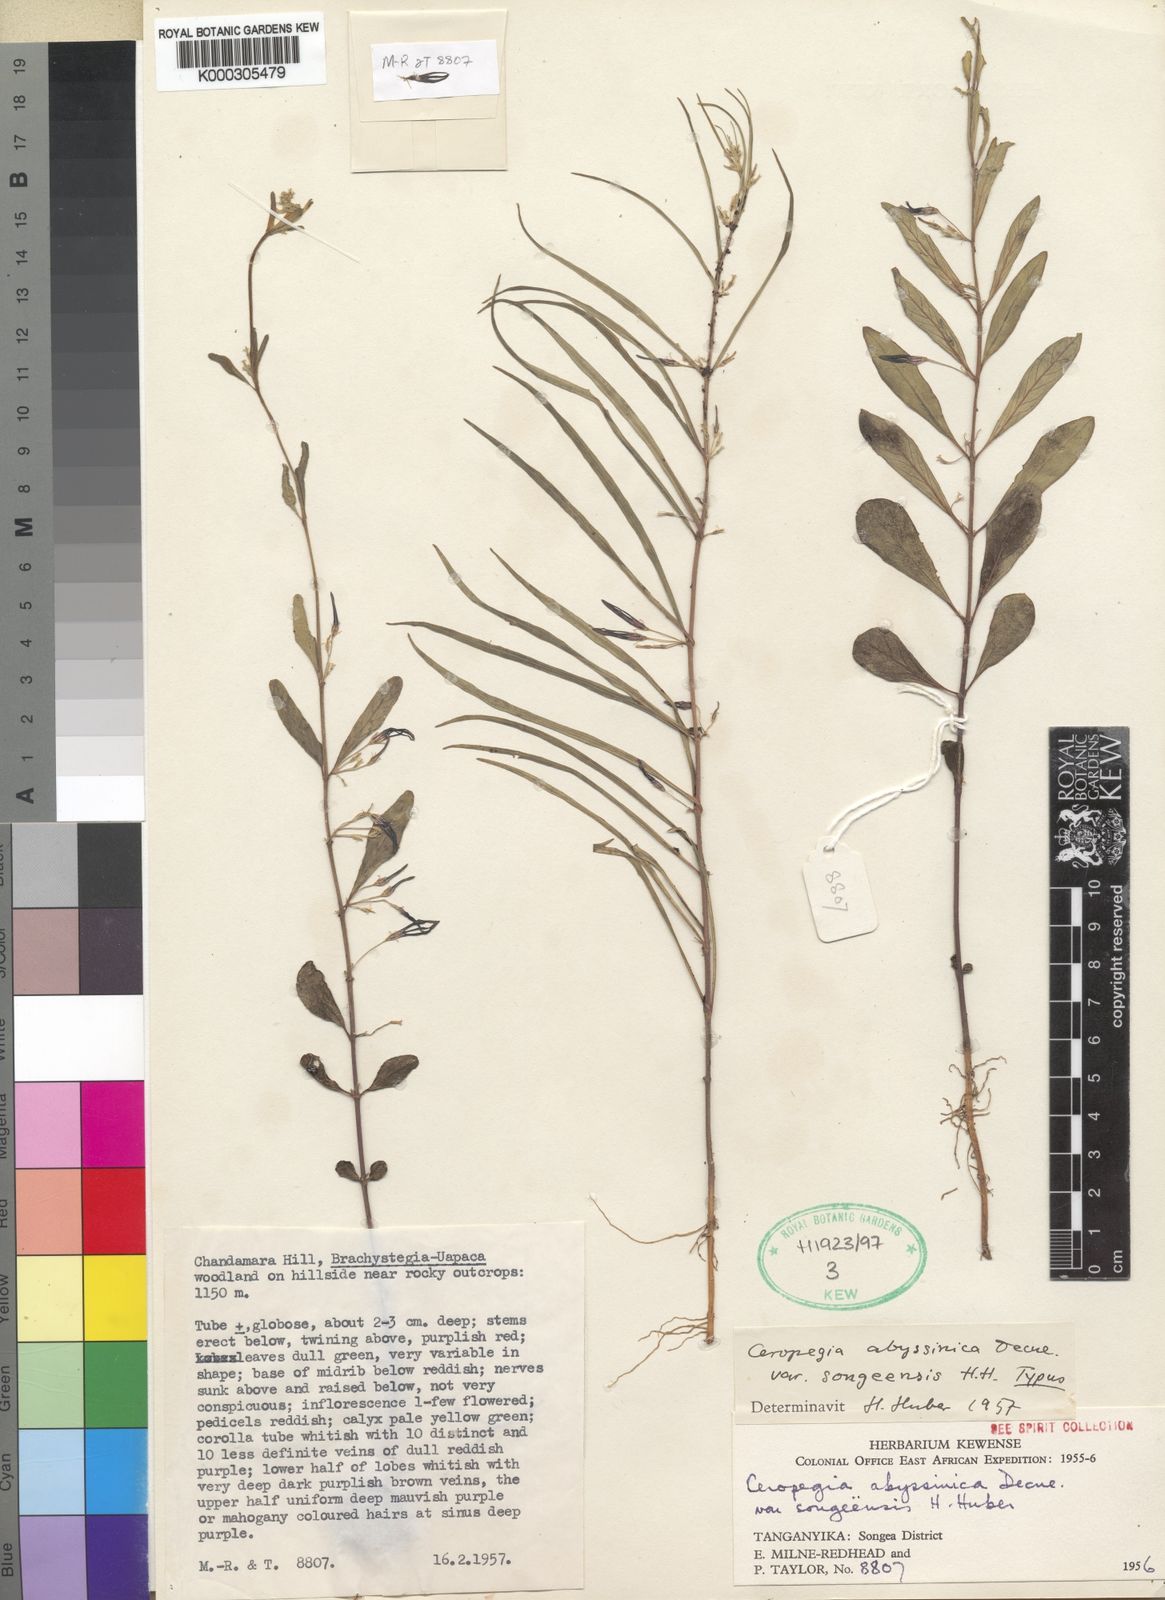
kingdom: Plantae
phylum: Tracheophyta
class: Magnoliopsida
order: Gentianales
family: Apocynaceae
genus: Ceropegia
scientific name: Ceropegia abyssinica
